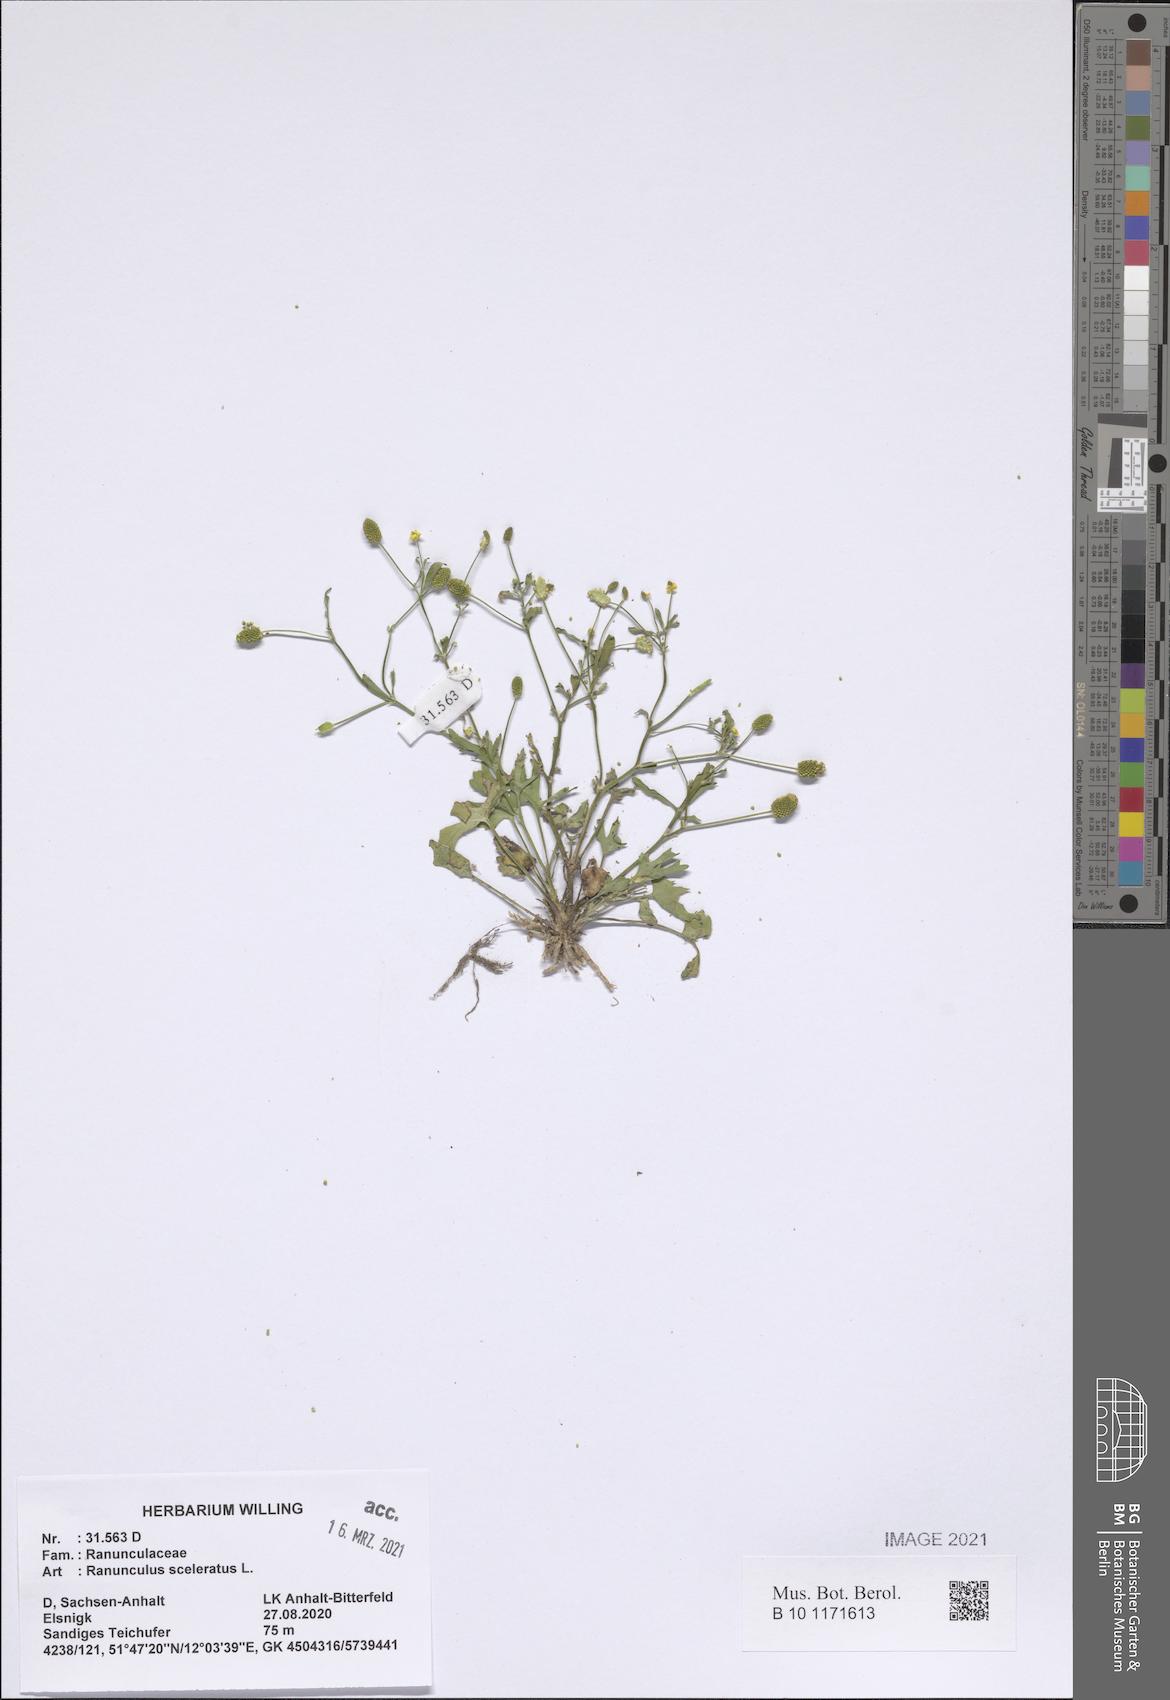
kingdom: Plantae
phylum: Tracheophyta
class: Magnoliopsida
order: Ranunculales
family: Ranunculaceae
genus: Ranunculus
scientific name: Ranunculus sceleratus
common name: Celery-leaved buttercup
